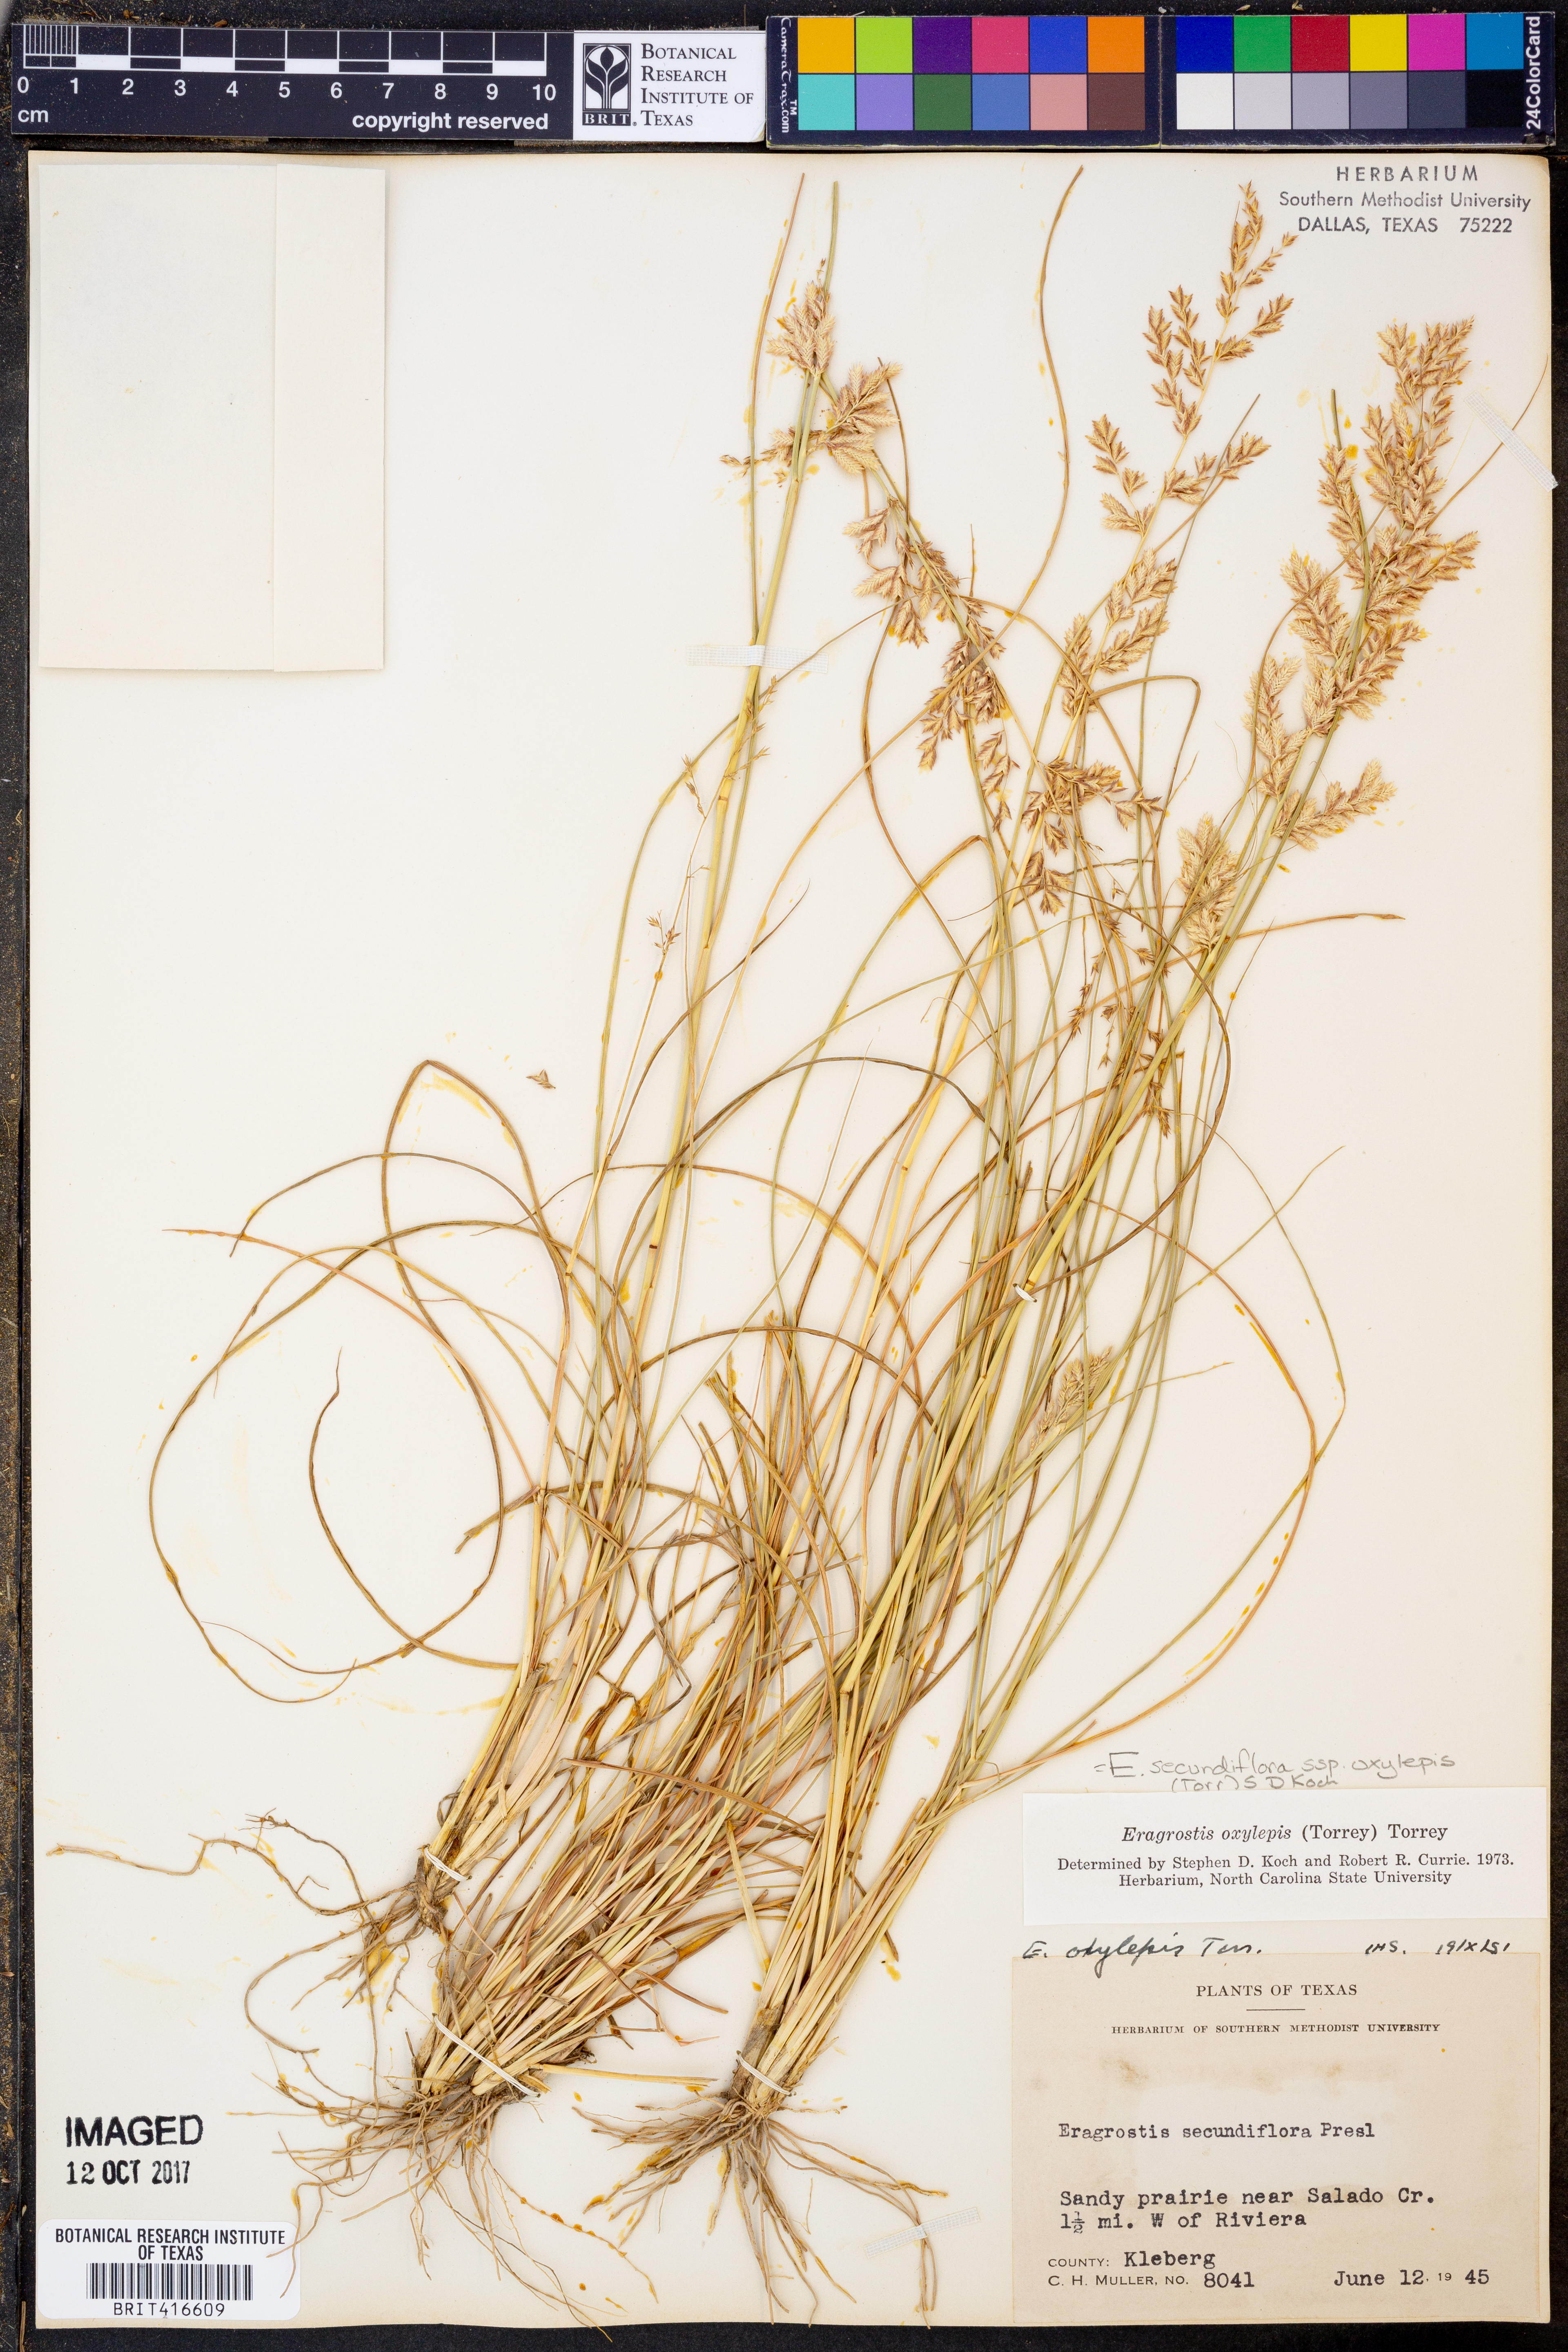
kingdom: Plantae
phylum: Tracheophyta
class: Liliopsida
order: Poales
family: Poaceae
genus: Eragrostis
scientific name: Eragrostis secundiflora
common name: Red love grass
